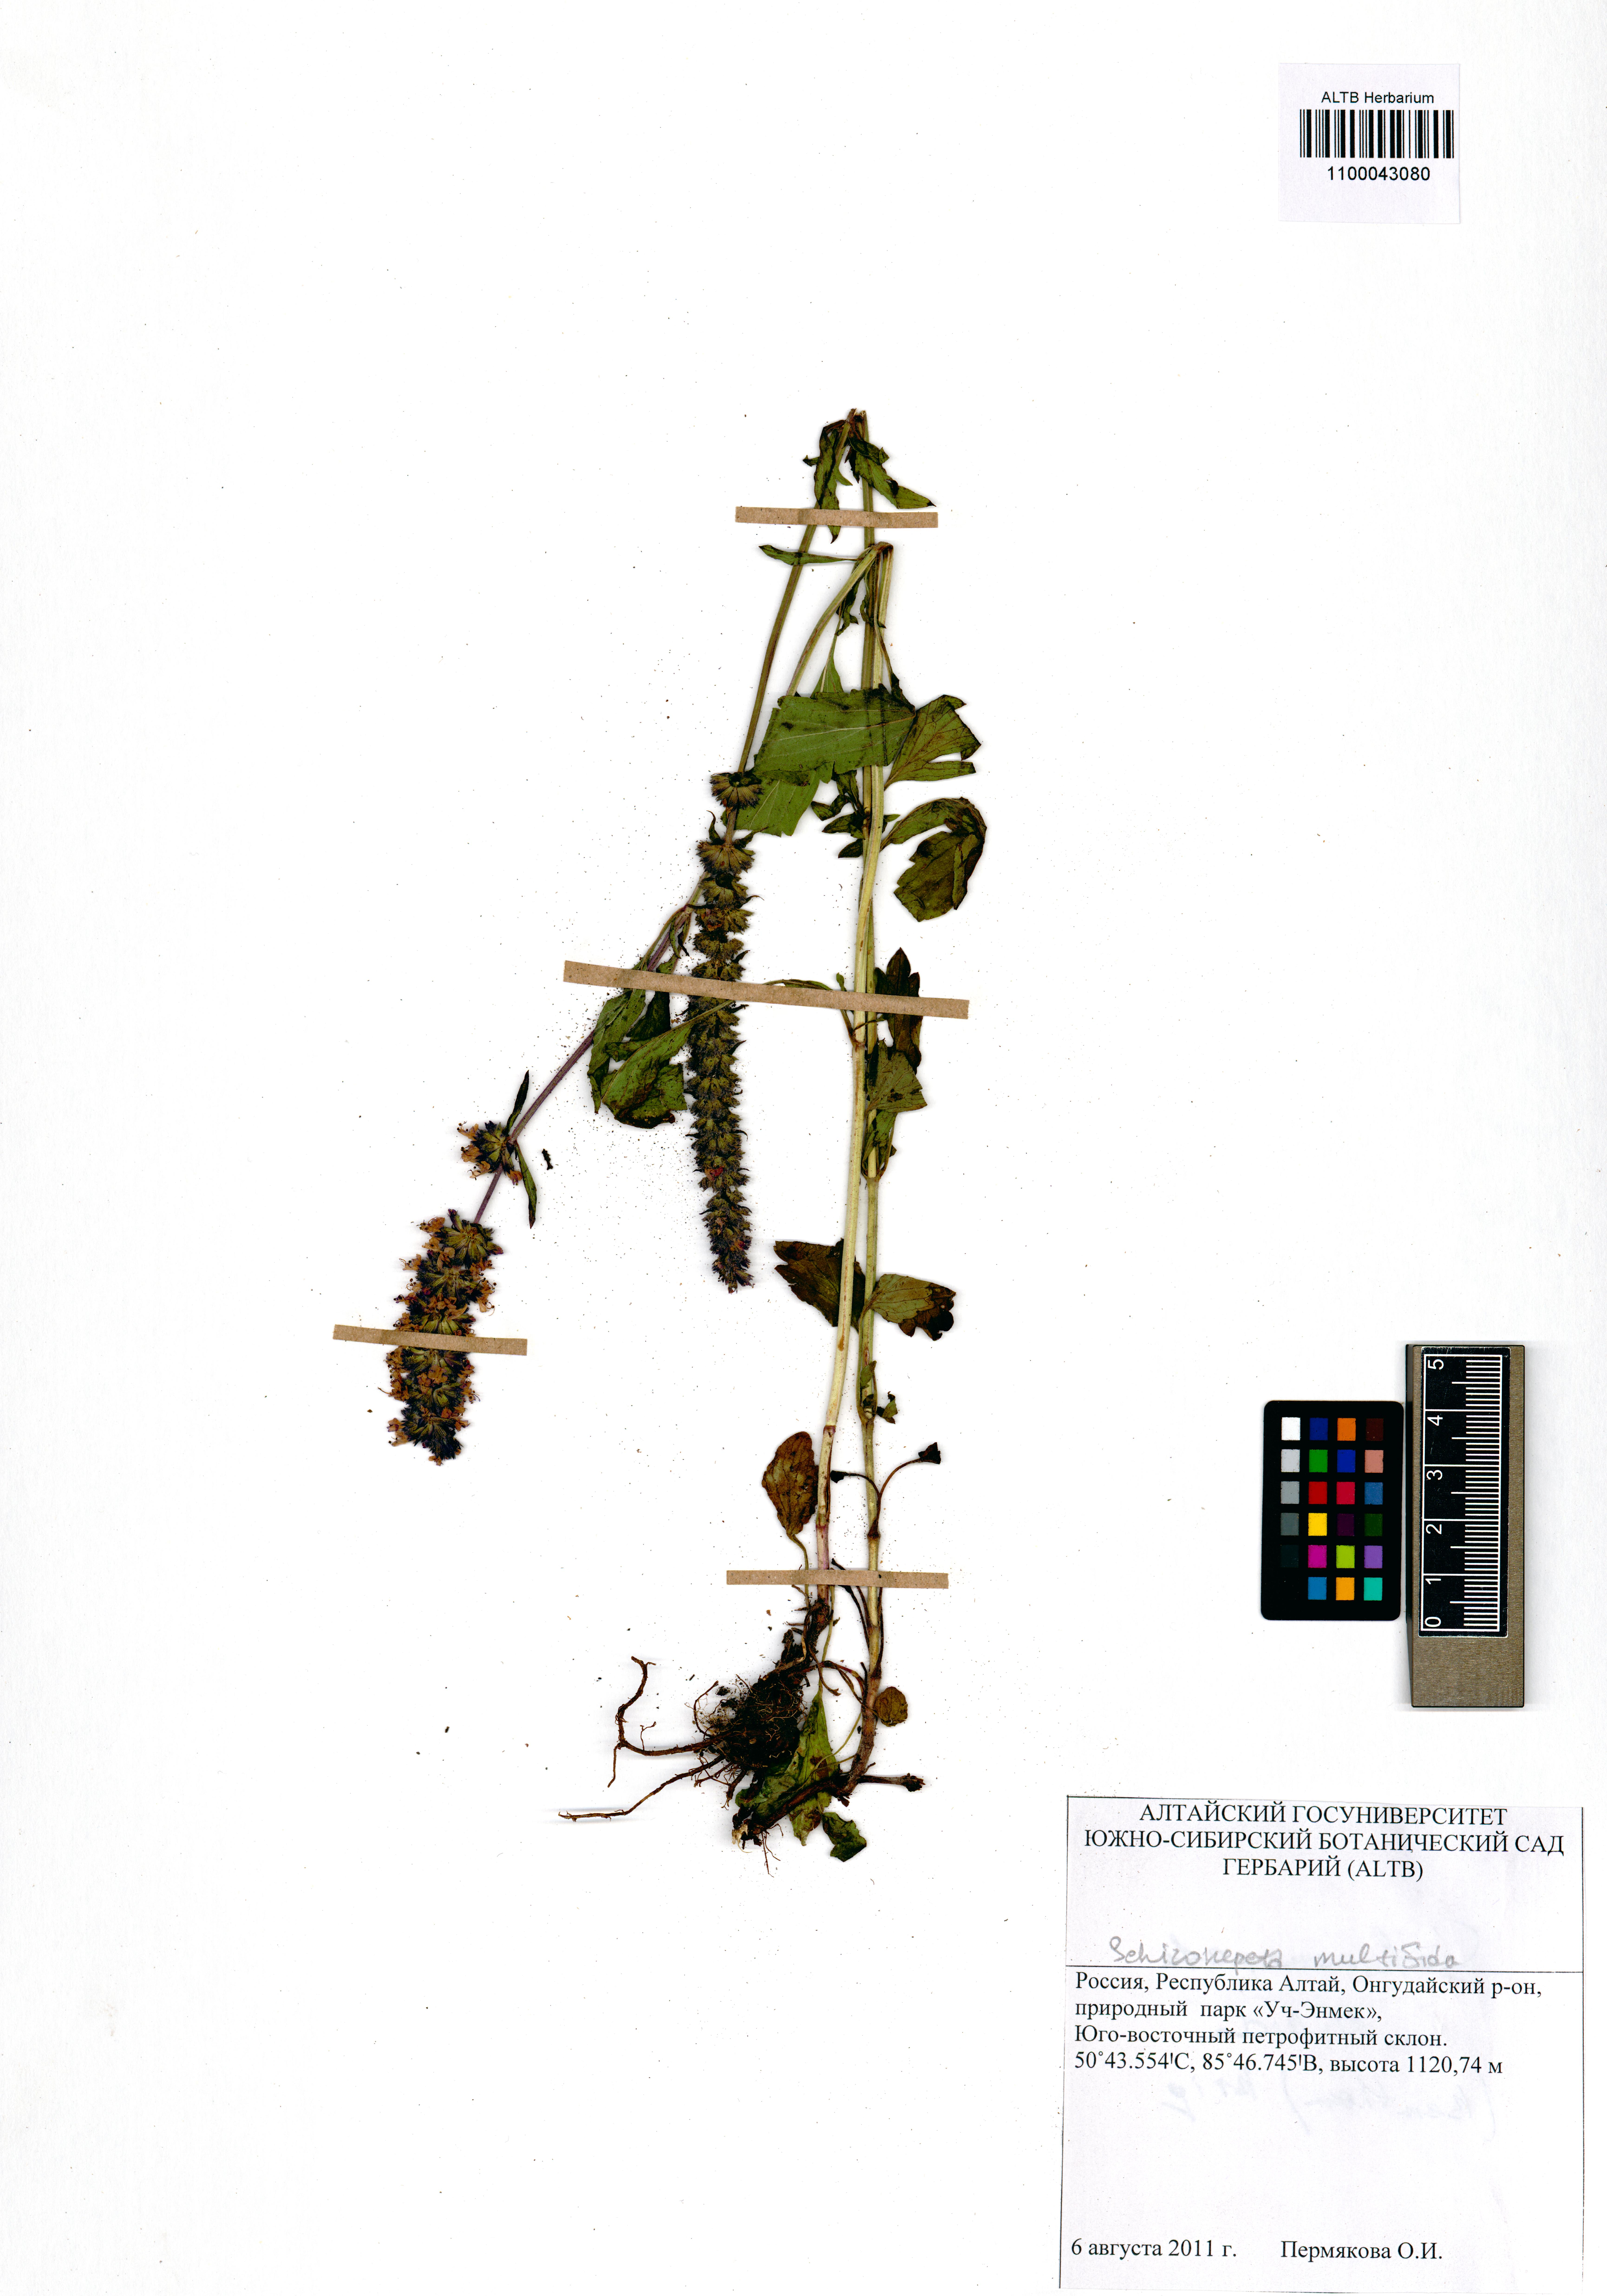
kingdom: Plantae
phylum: Tracheophyta
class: Magnoliopsida
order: Lamiales
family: Lamiaceae
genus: Nepeta
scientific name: Nepeta multifida
